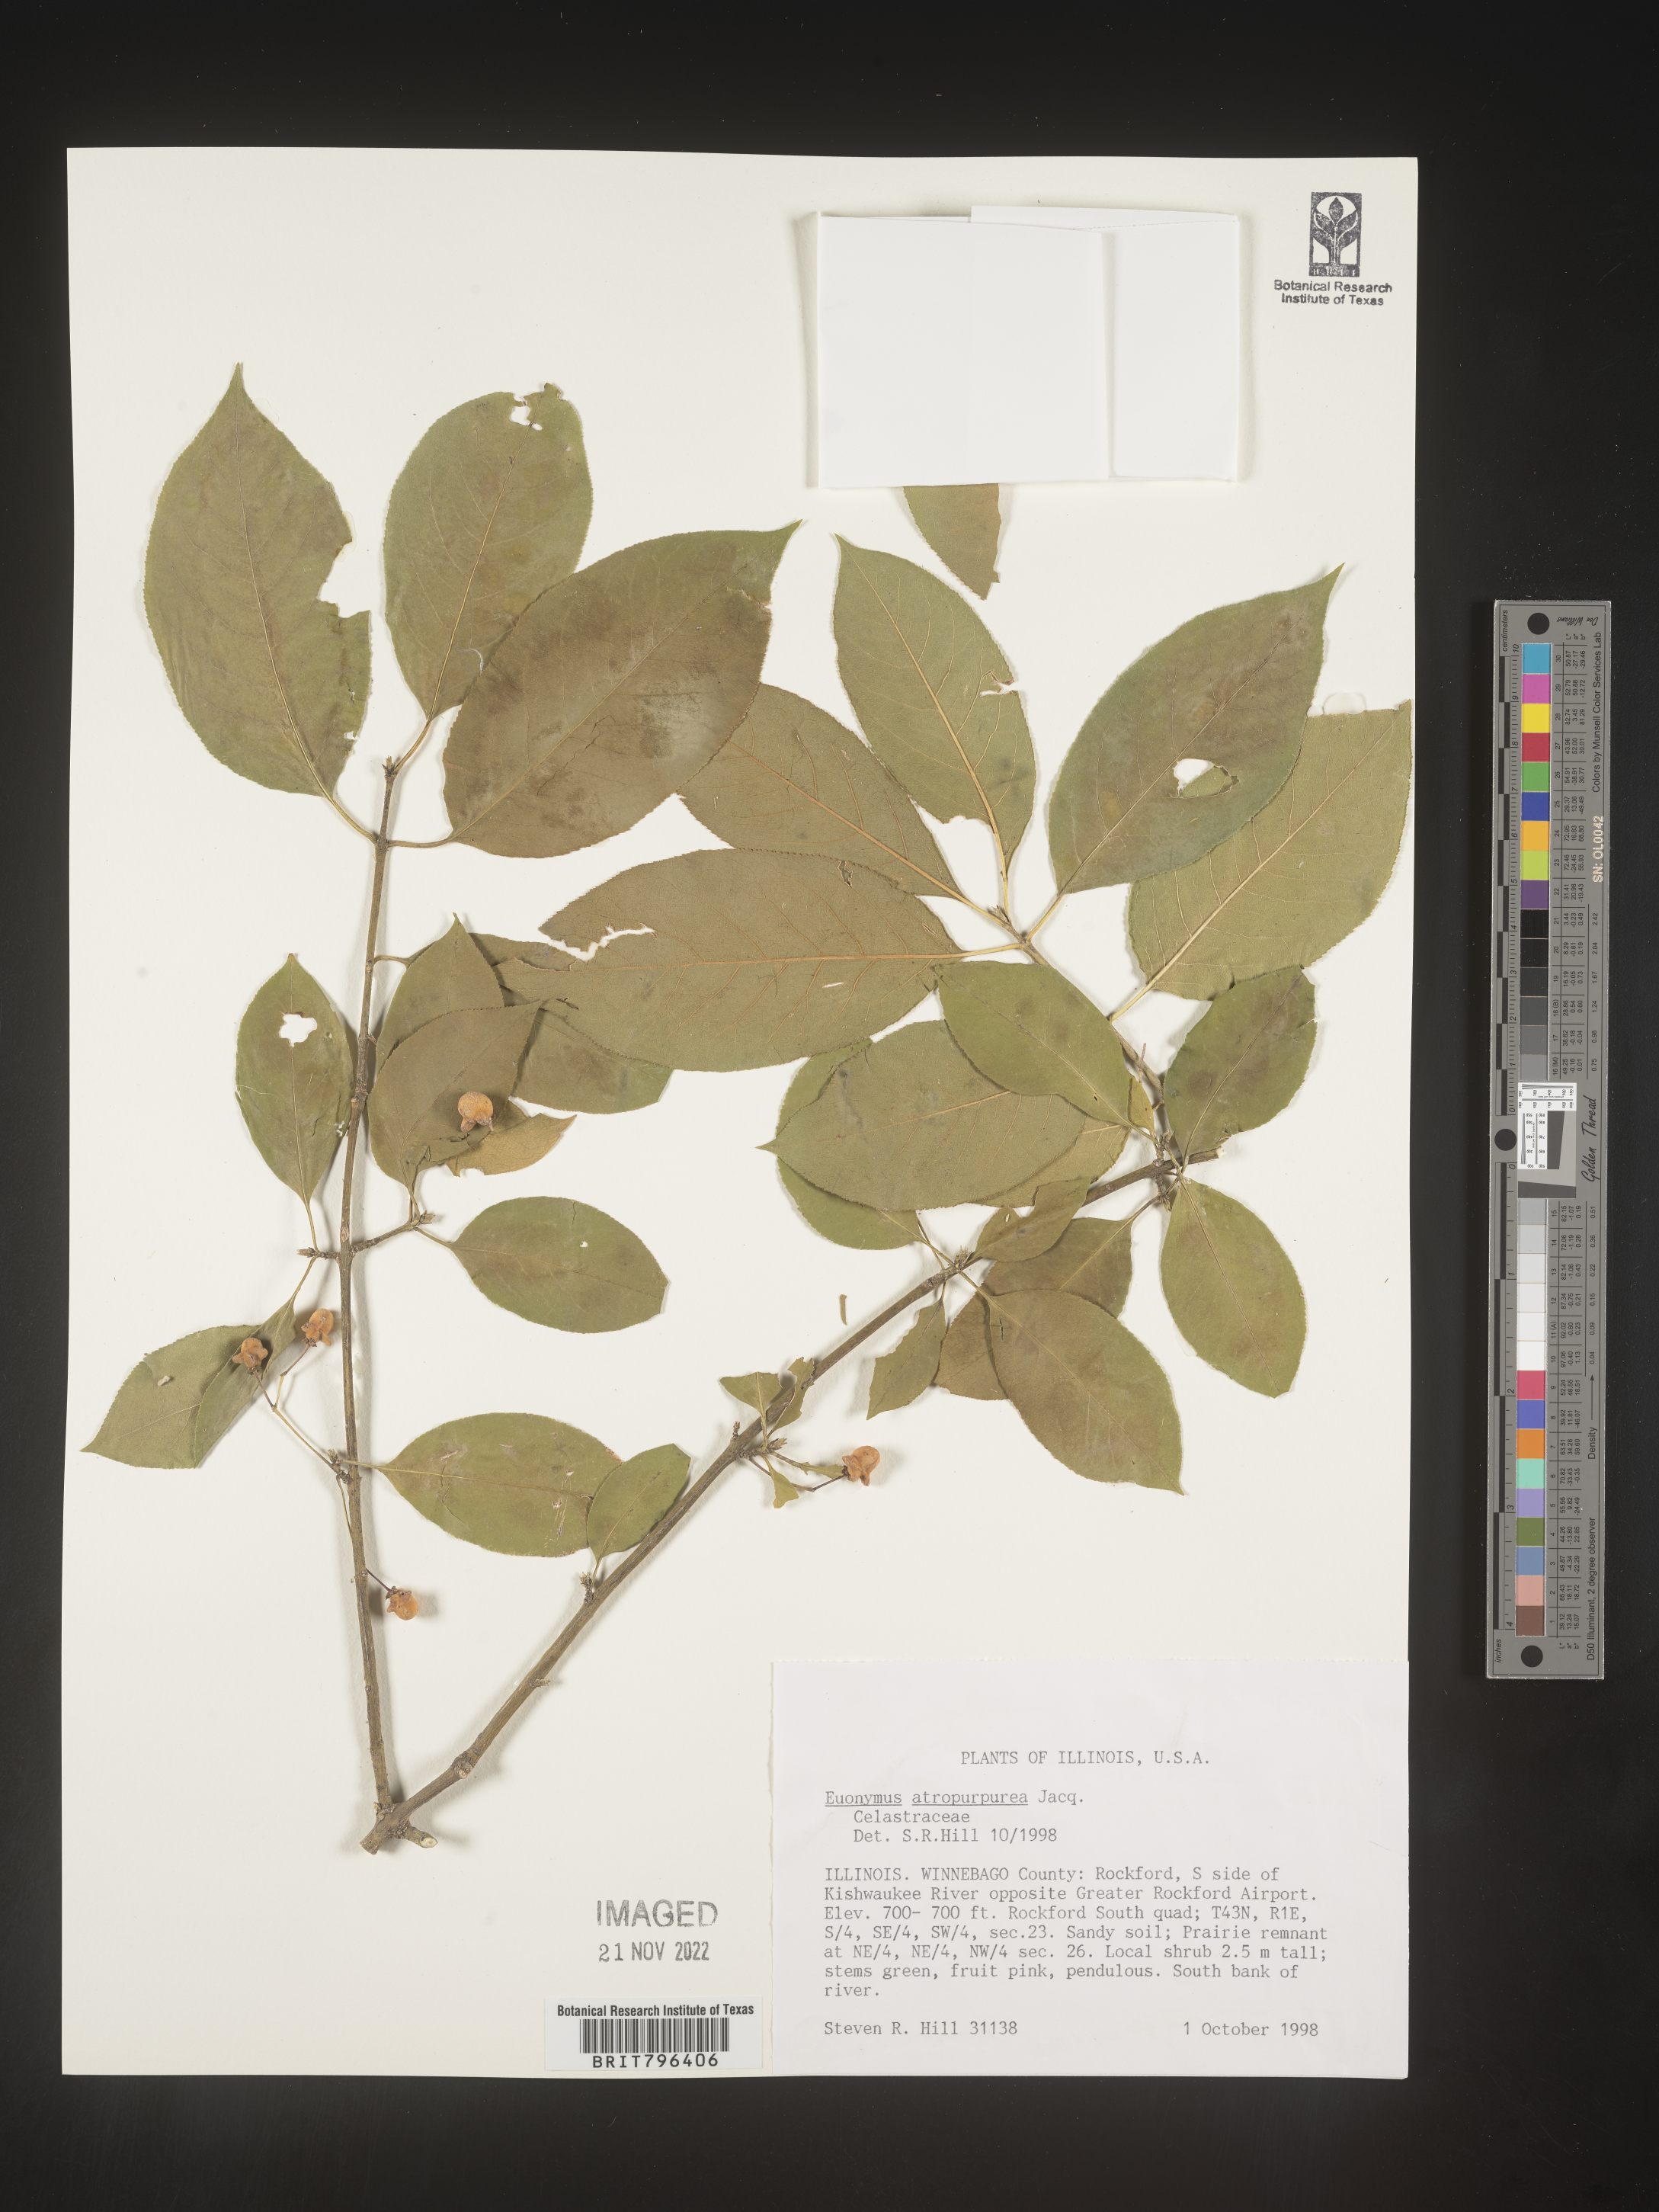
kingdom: Plantae
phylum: Tracheophyta
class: Magnoliopsida
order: Celastrales
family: Celastraceae
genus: Euonymus
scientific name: Euonymus atropurpureus
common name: Eastern wahoo
